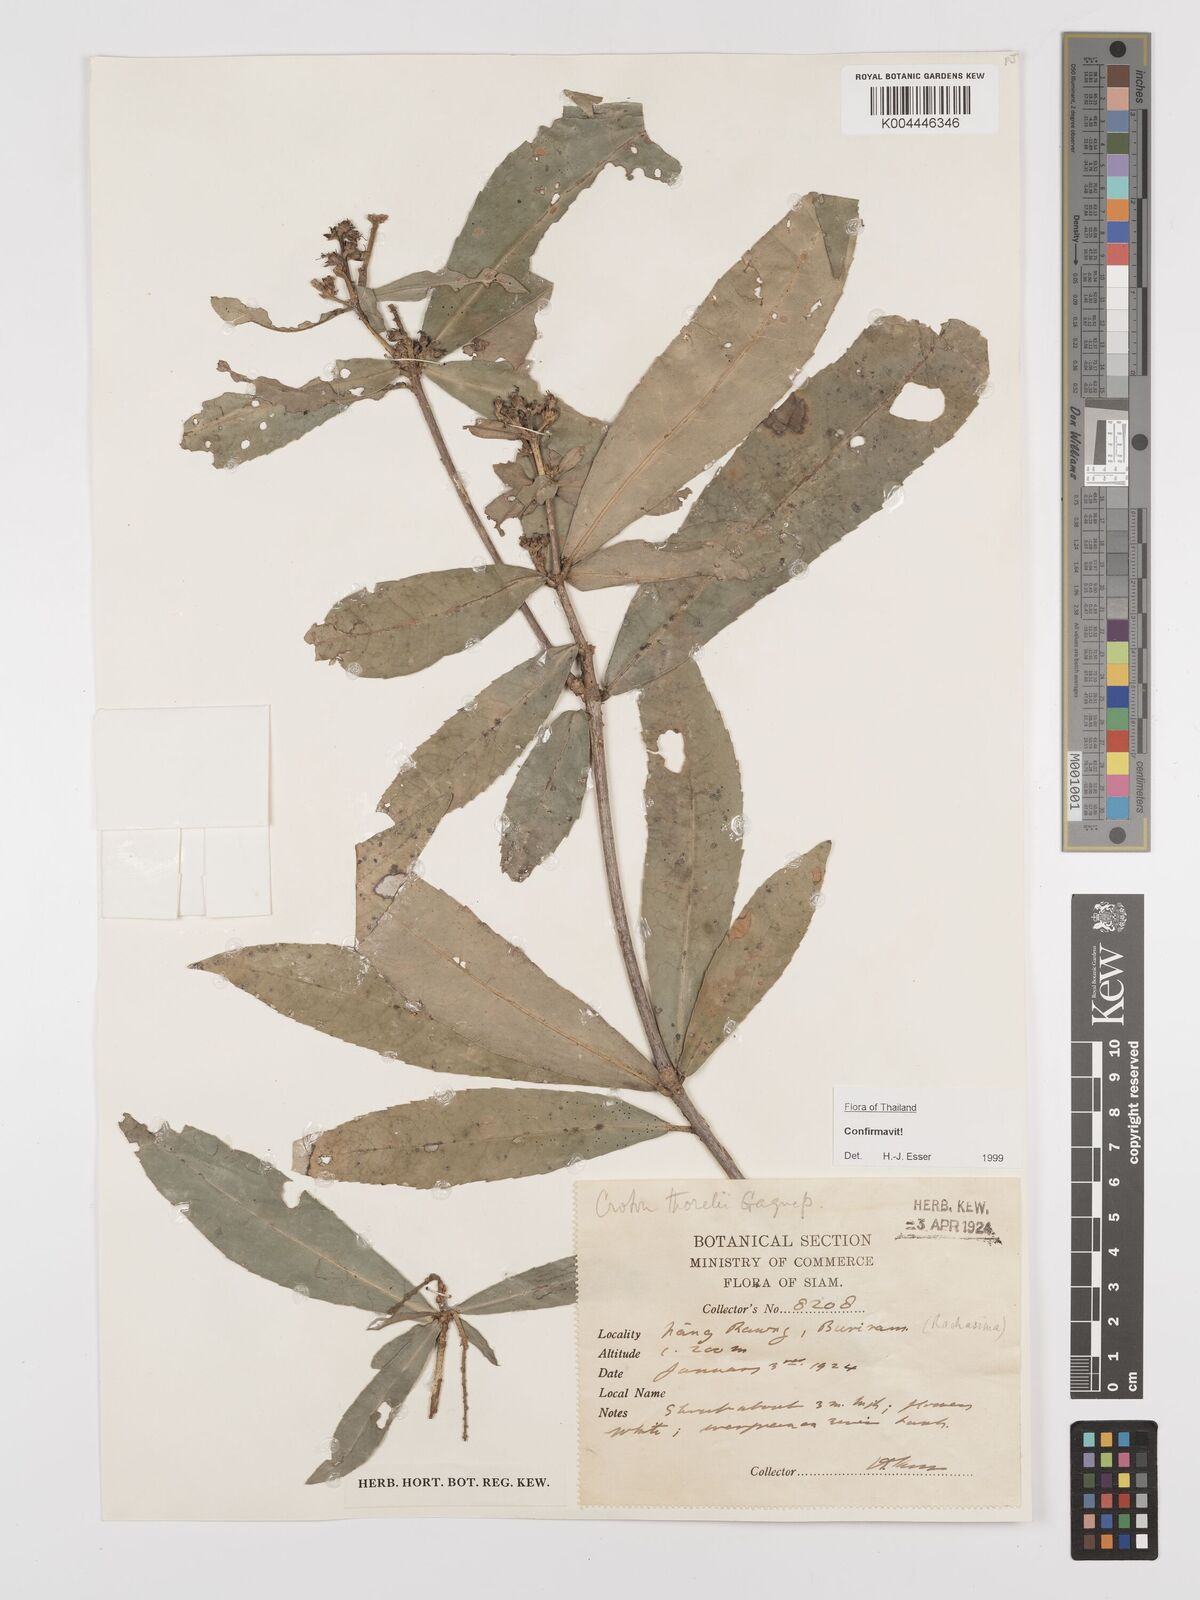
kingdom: Plantae
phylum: Tracheophyta
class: Magnoliopsida
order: Malpighiales
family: Euphorbiaceae
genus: Croton
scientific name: Croton thorelii
